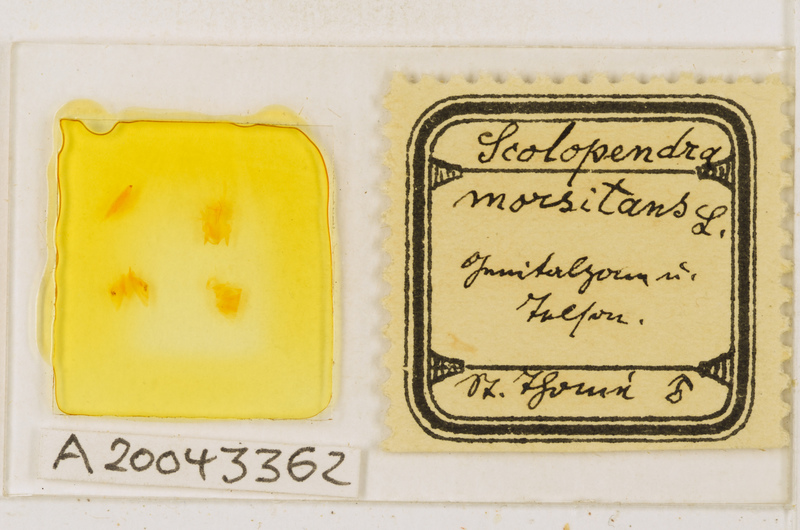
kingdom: Animalia
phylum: Arthropoda
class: Chilopoda
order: Scolopendromorpha
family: Scolopendridae
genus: Scolopendra
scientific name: Scolopendra morsitans
